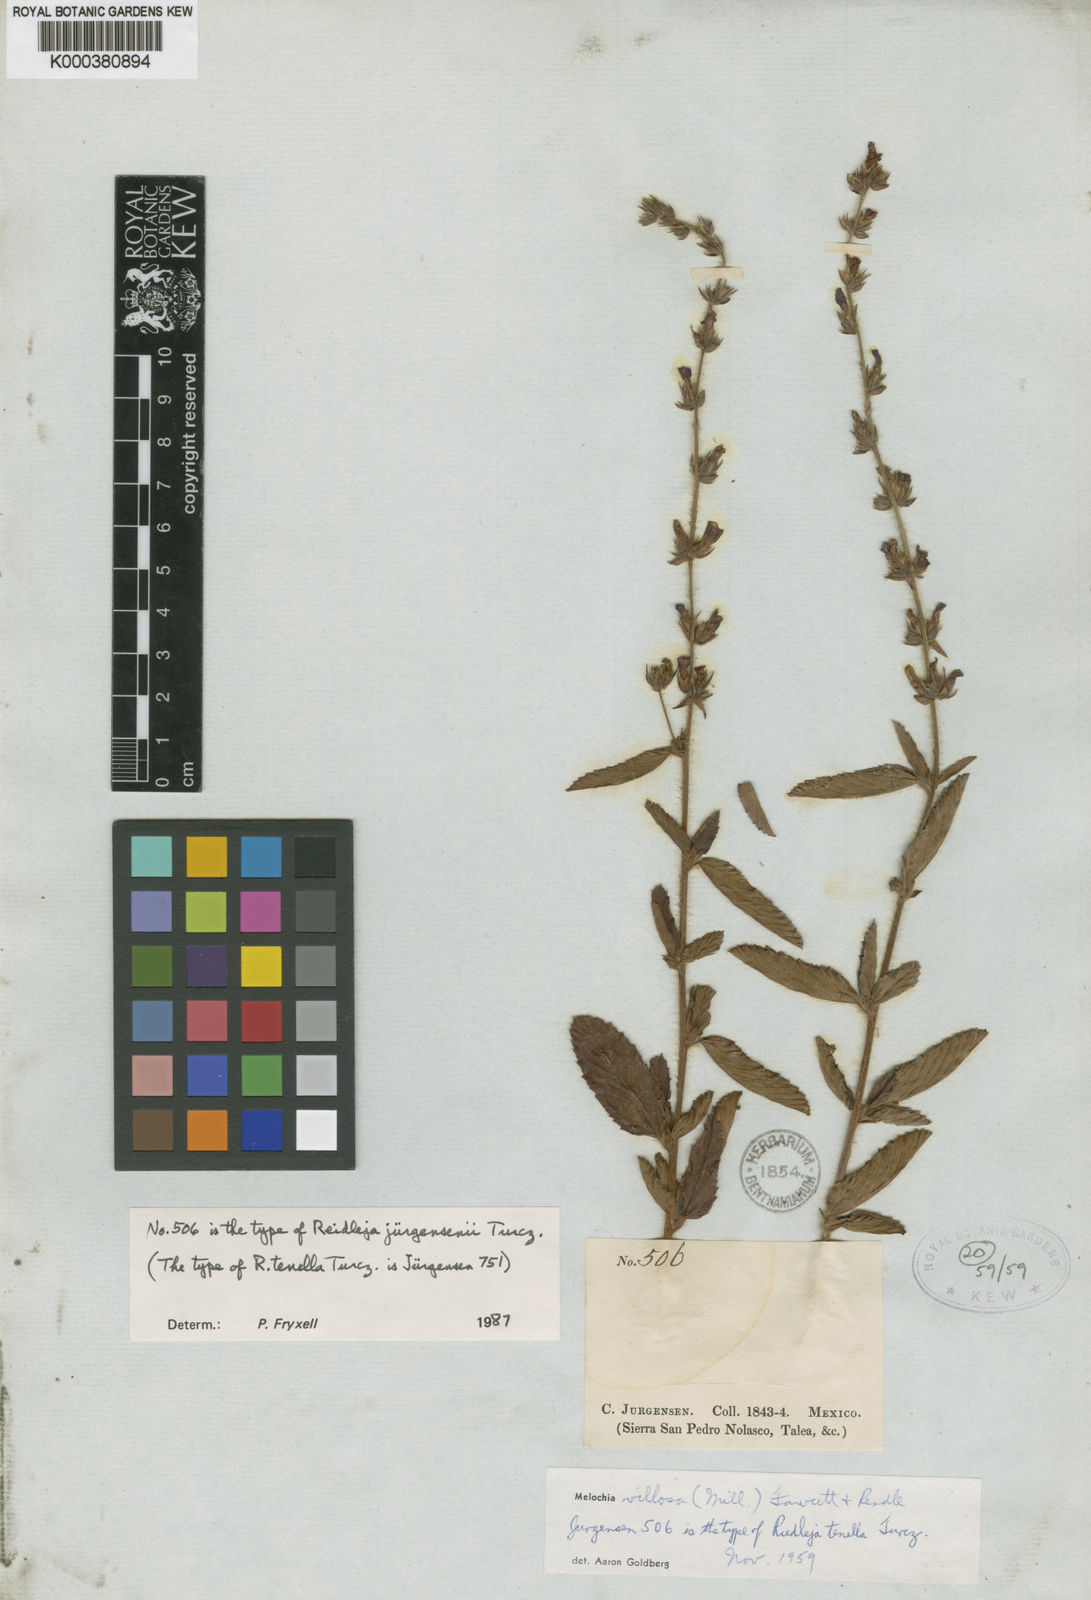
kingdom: Plantae
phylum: Tracheophyta
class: Magnoliopsida
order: Malvales
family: Malvaceae
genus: Melochia
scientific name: Melochia spicata
